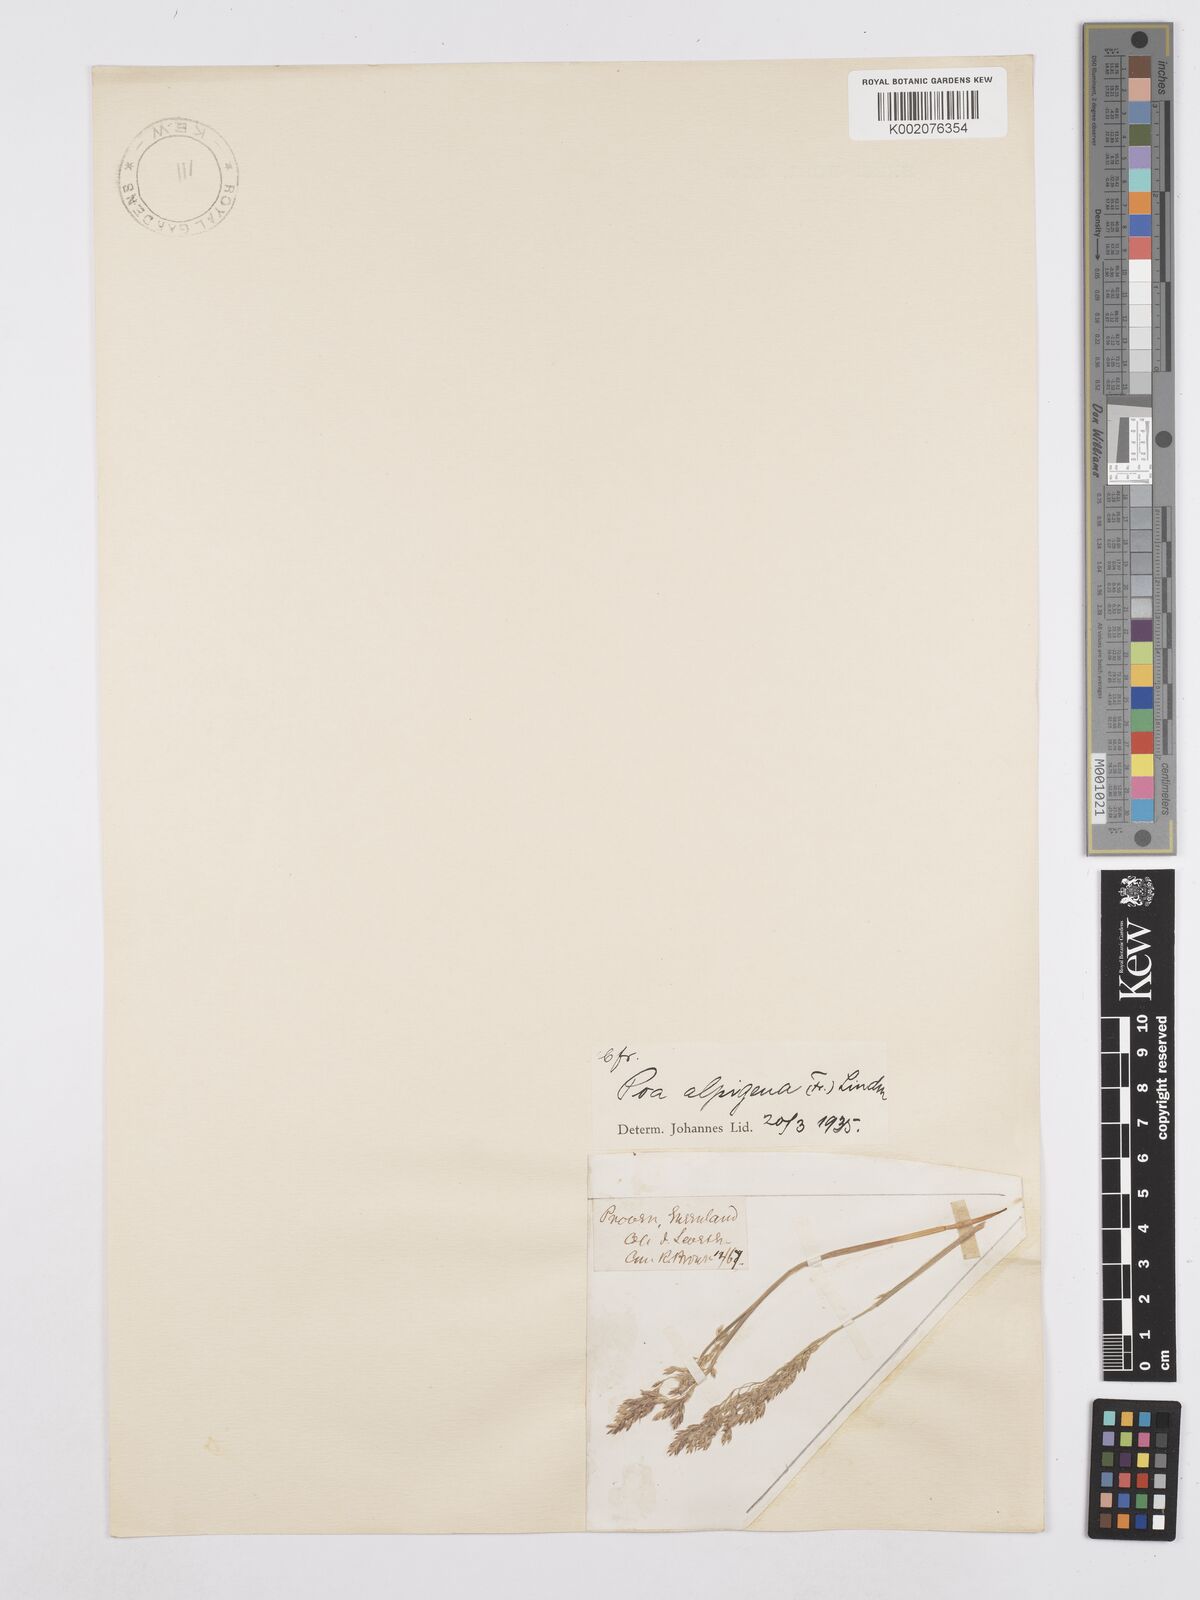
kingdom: Plantae
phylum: Tracheophyta
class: Liliopsida
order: Poales
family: Poaceae
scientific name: Poaceae
